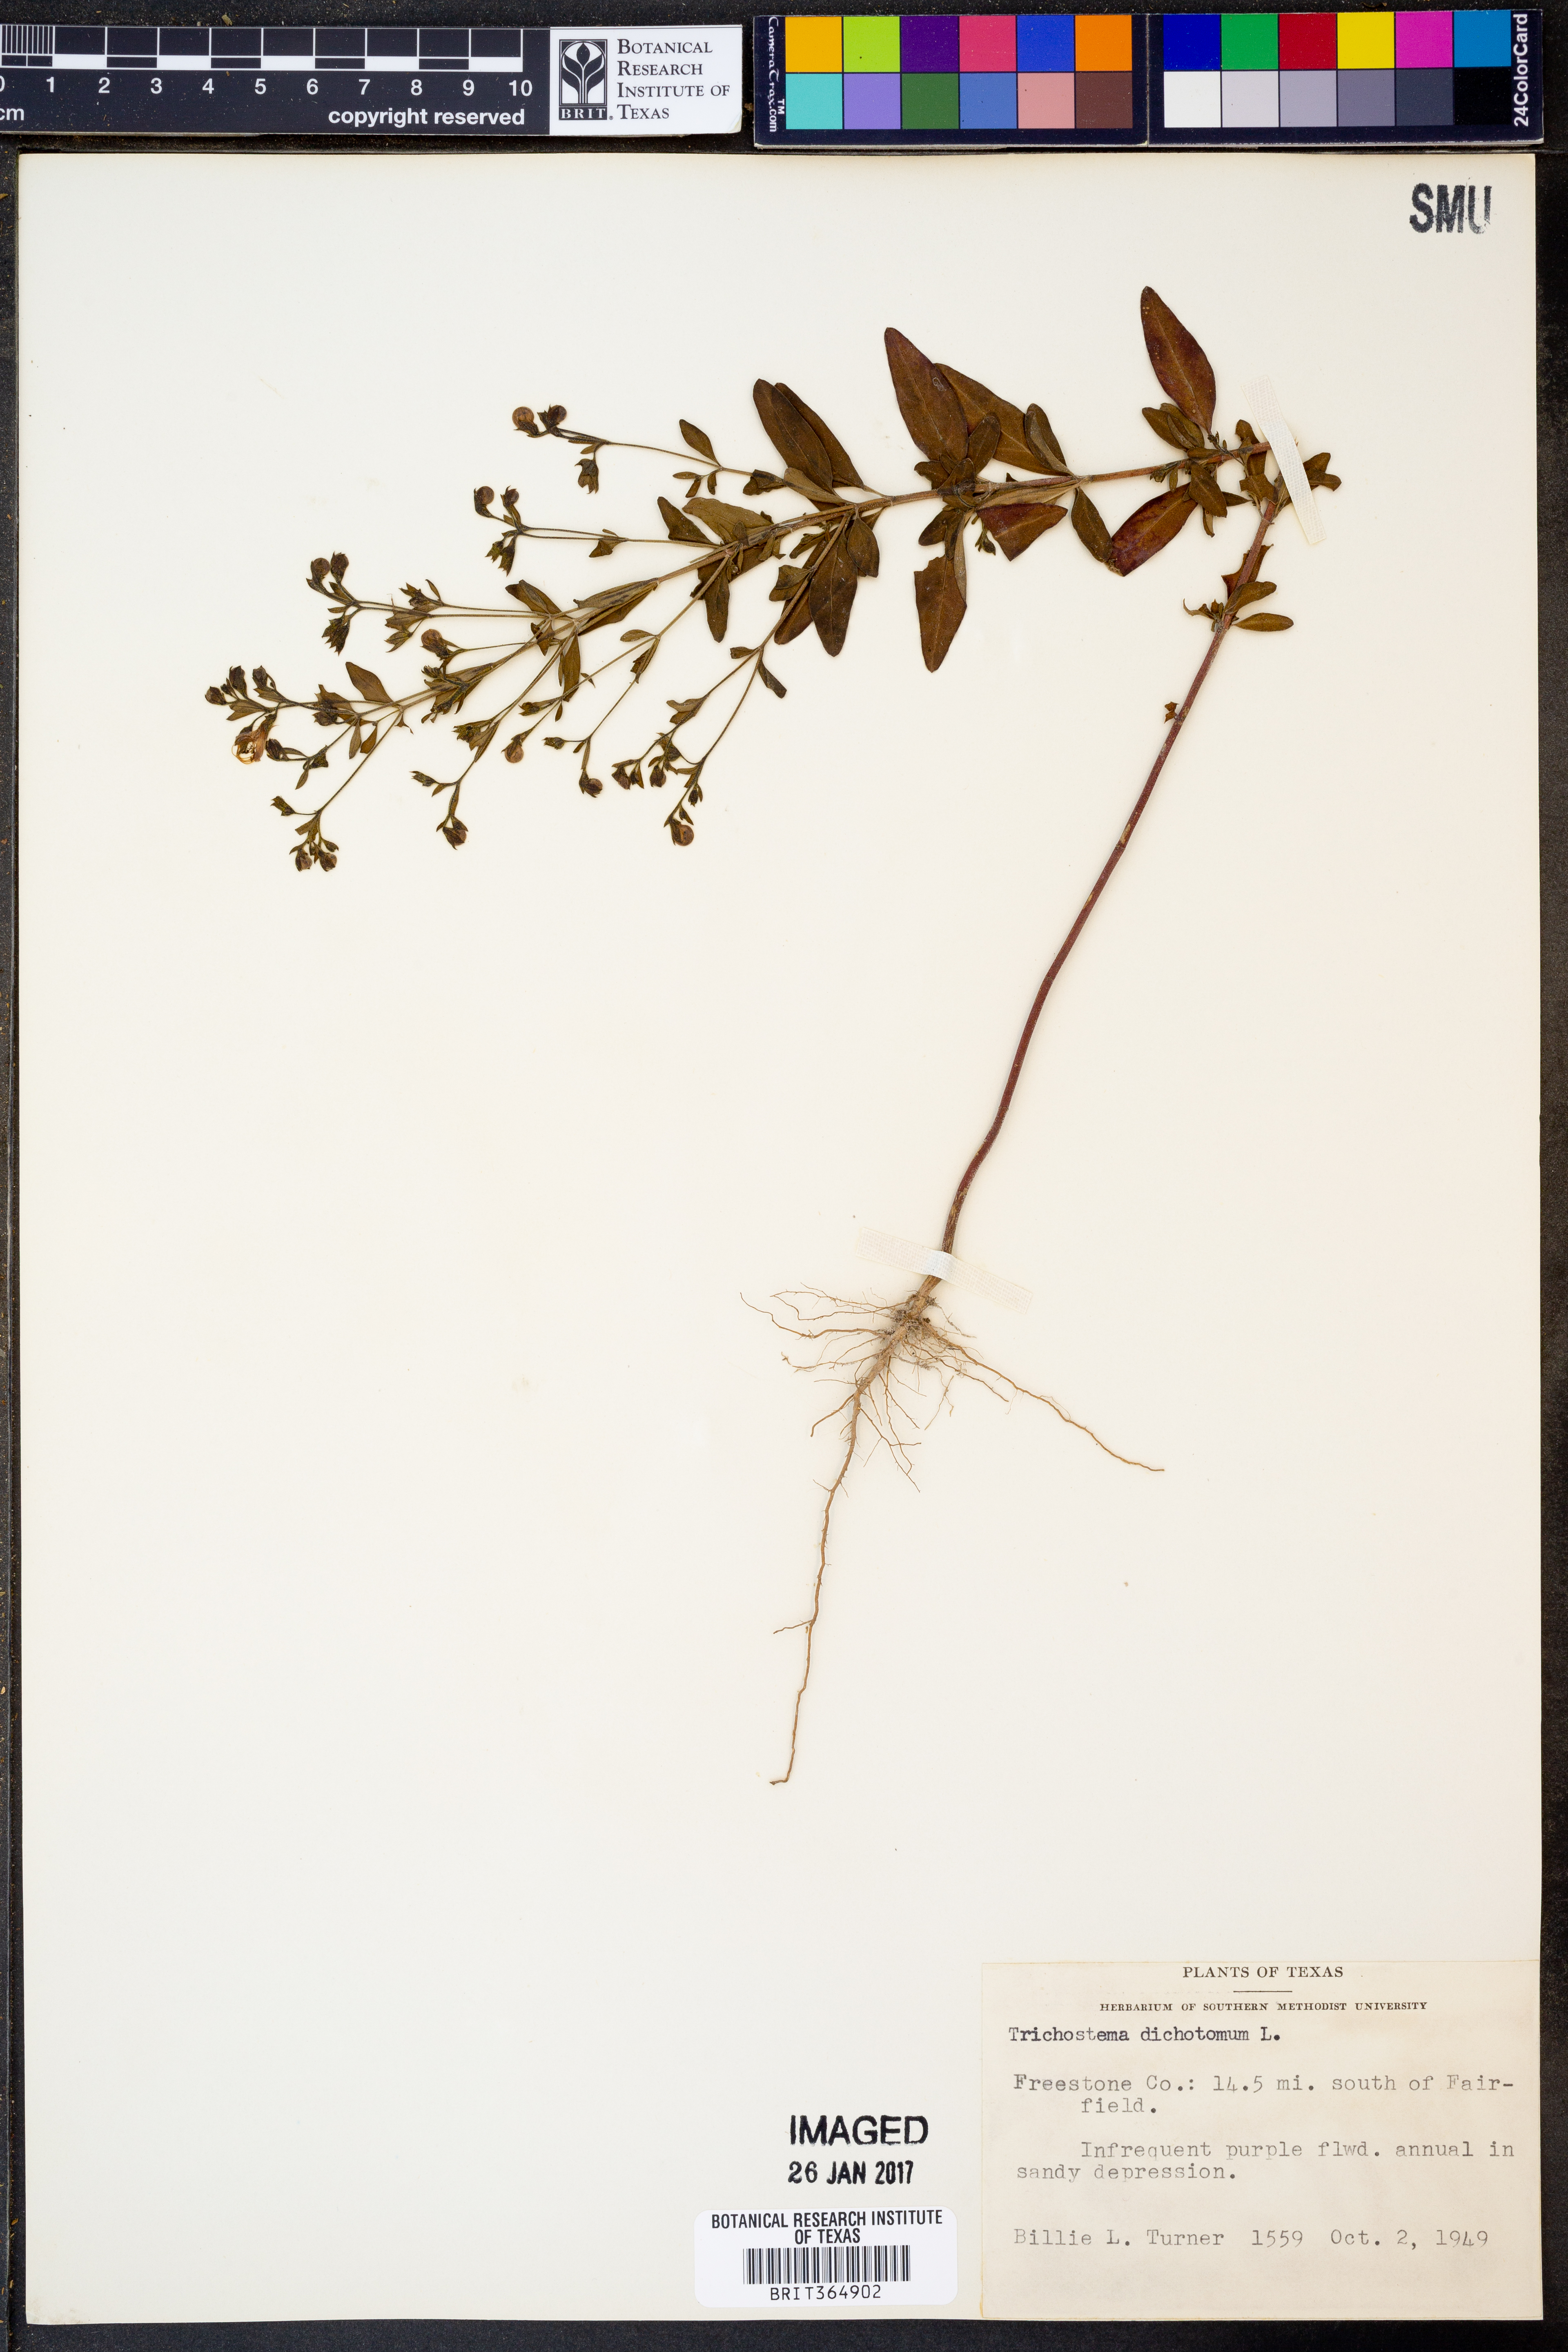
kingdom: Plantae
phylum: Tracheophyta
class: Magnoliopsida
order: Lamiales
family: Lamiaceae
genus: Trichostema
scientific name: Trichostema dichotomum
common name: Bastard pennyroyal
